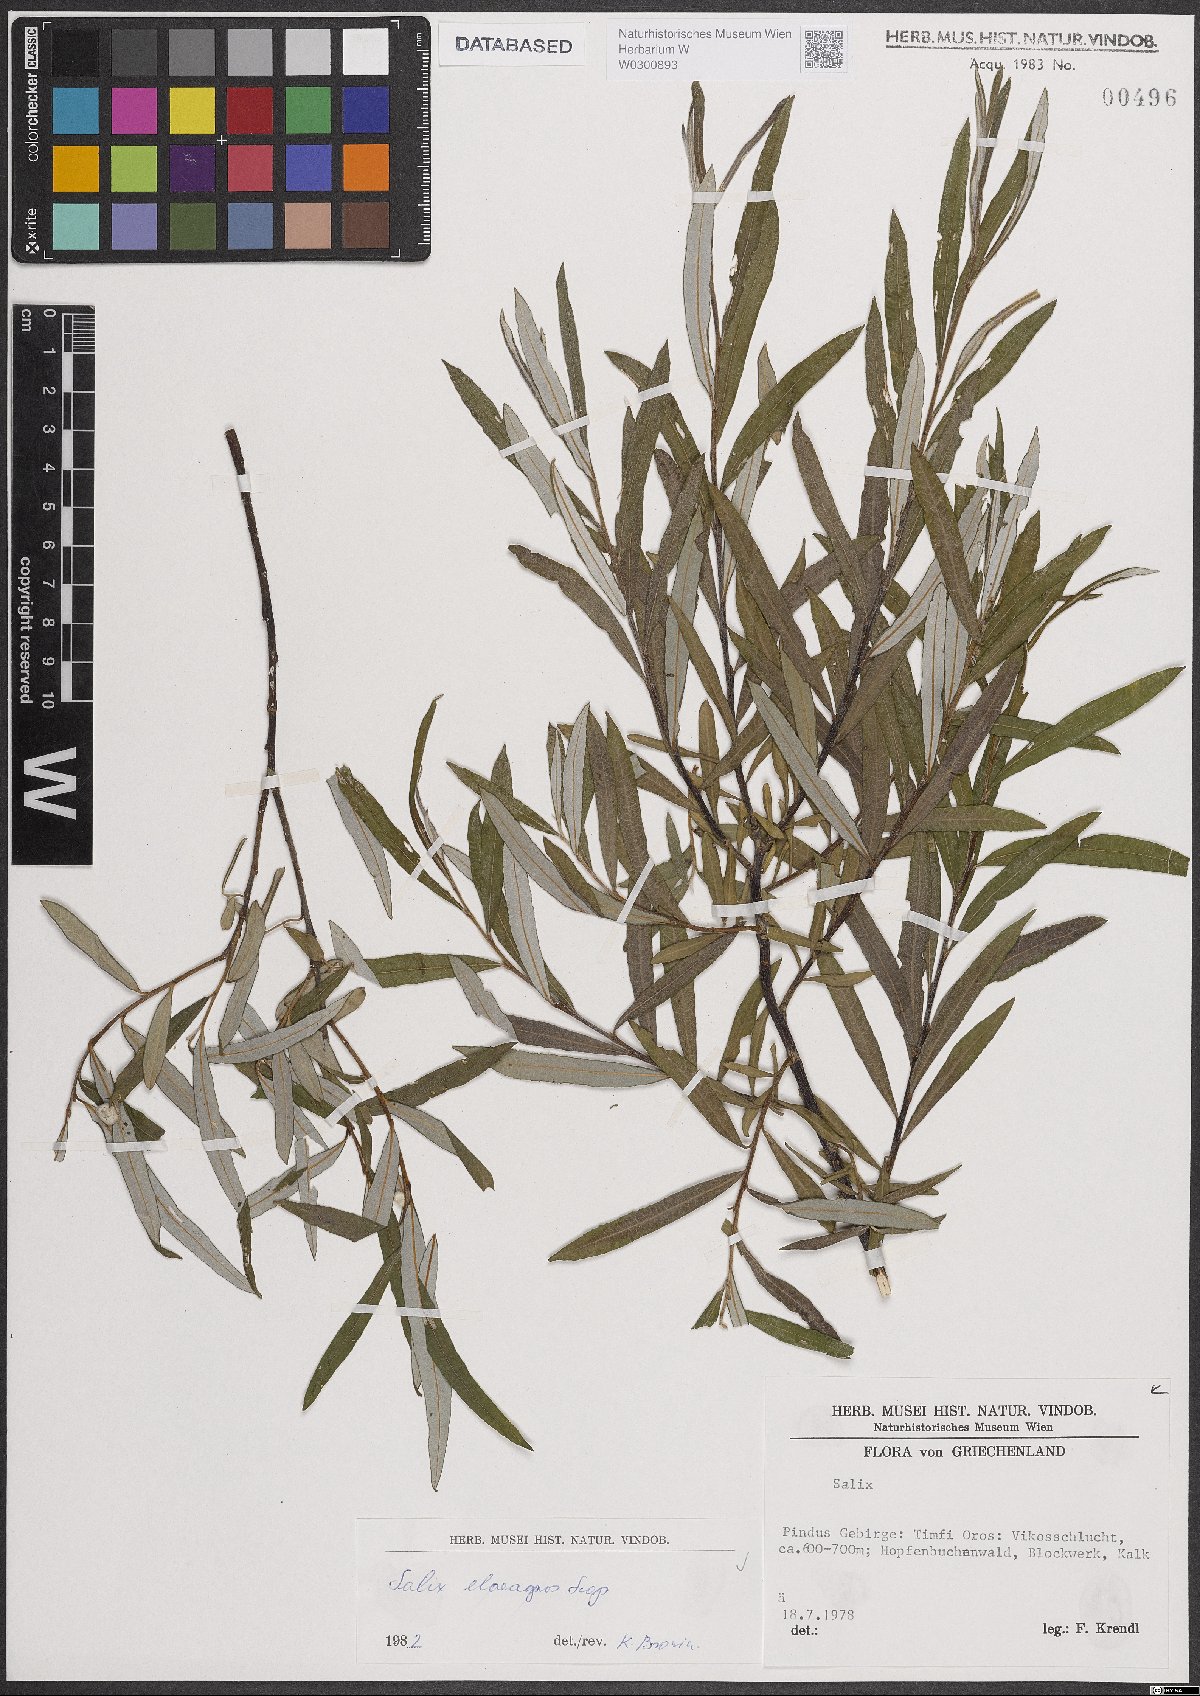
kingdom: Plantae
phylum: Tracheophyta
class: Magnoliopsida
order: Malpighiales
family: Salicaceae
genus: Salix
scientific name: Salix eleagnos
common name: Elaeagnus willow
